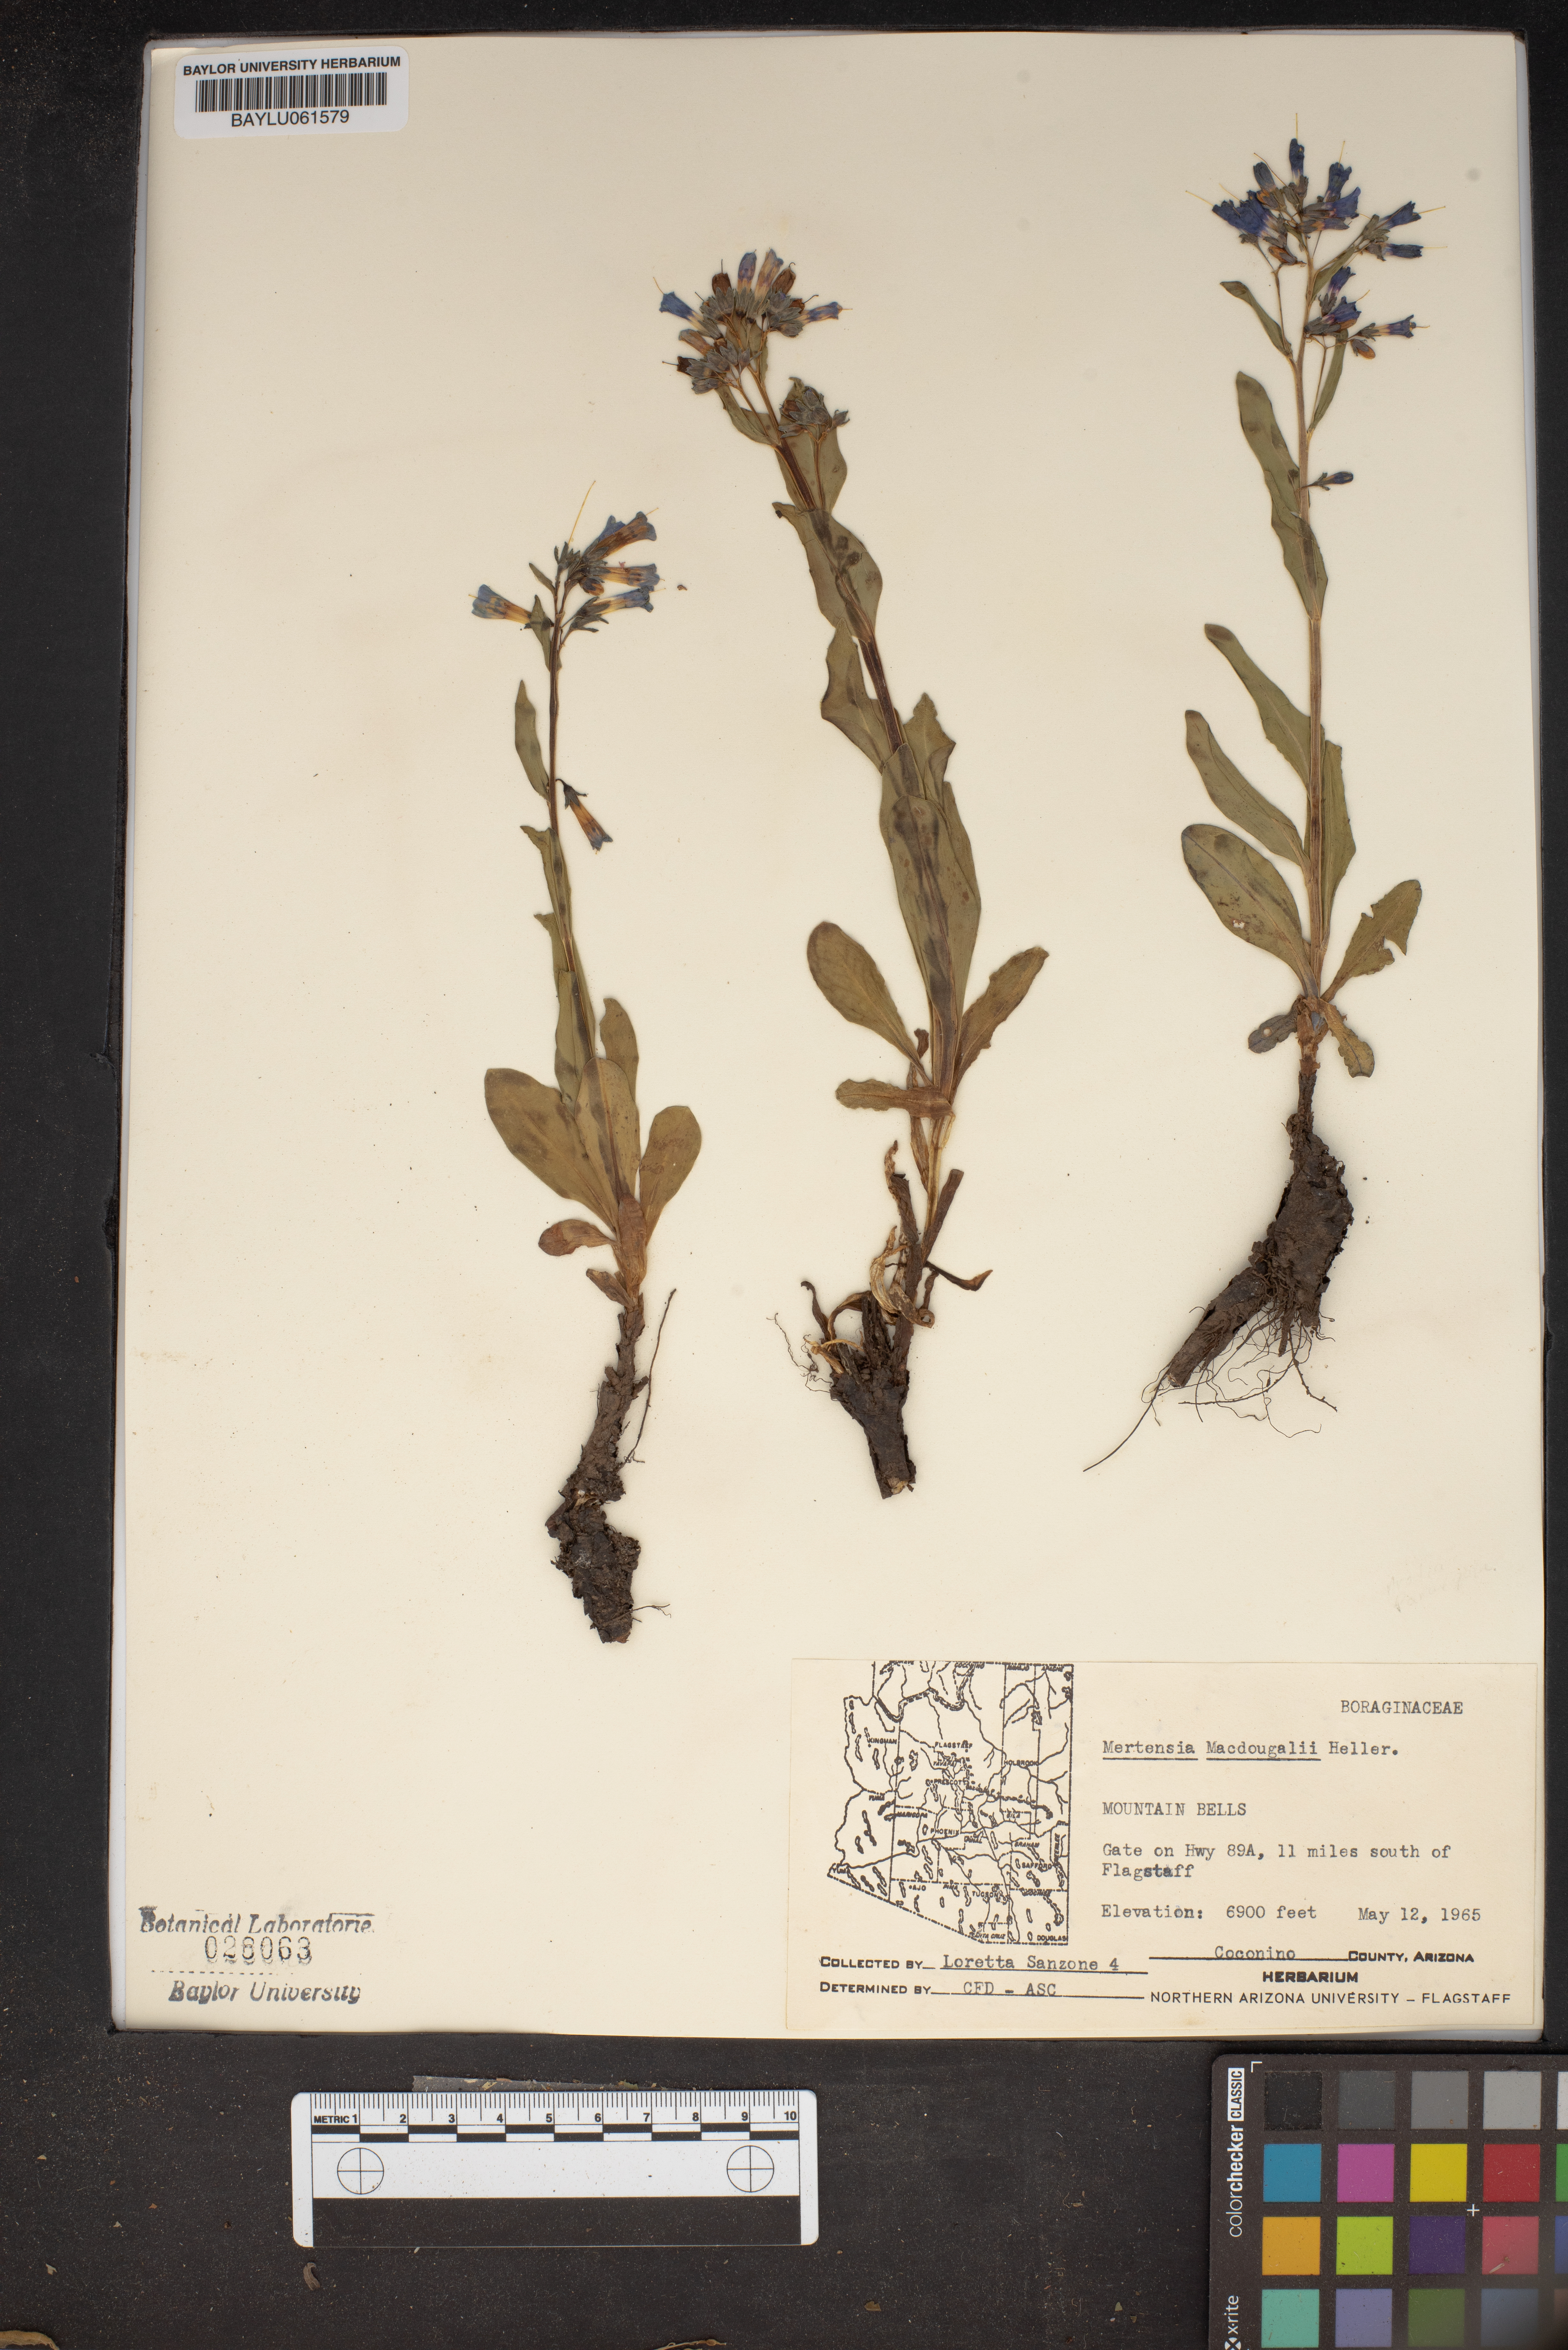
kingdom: Plantae
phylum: Tracheophyta
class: Magnoliopsida
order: Boraginales
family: Boraginaceae
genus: Mertensia
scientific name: Mertensia macdougalii
